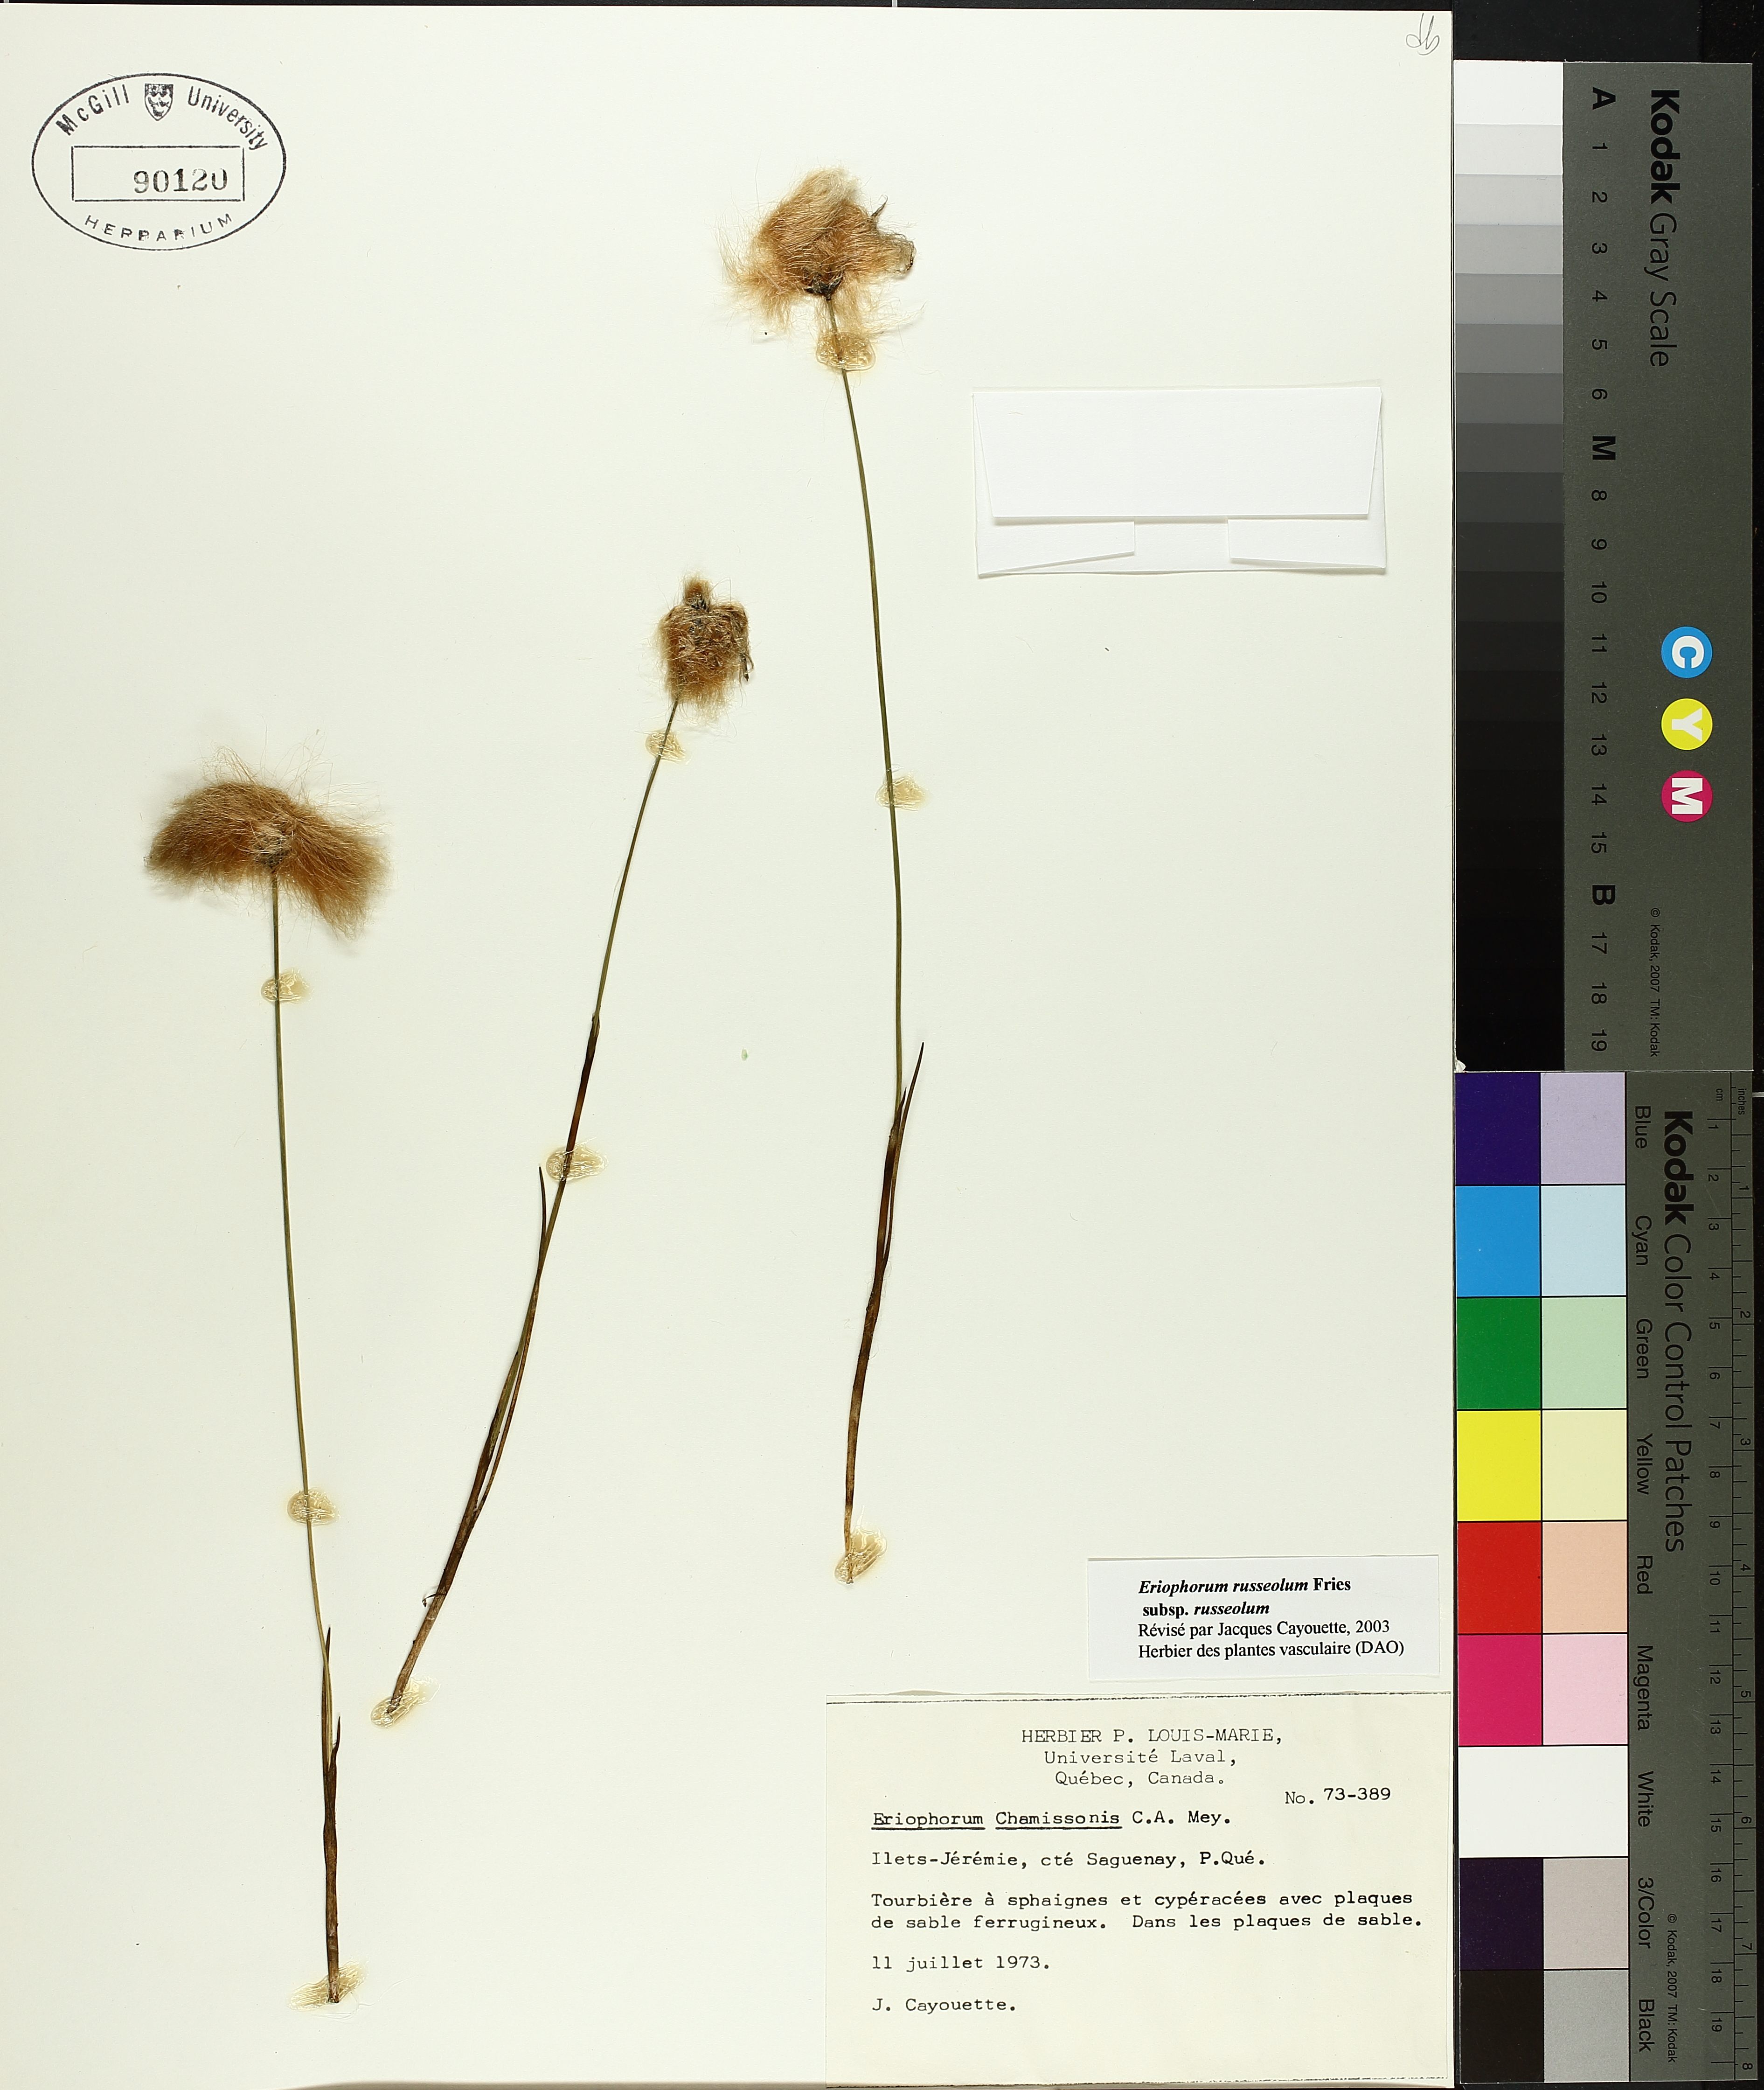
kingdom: Plantae
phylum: Tracheophyta
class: Liliopsida
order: Poales
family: Cyperaceae
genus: Eriophorum
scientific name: Eriophorum chamissonis
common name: Chamisso's cottongrass
